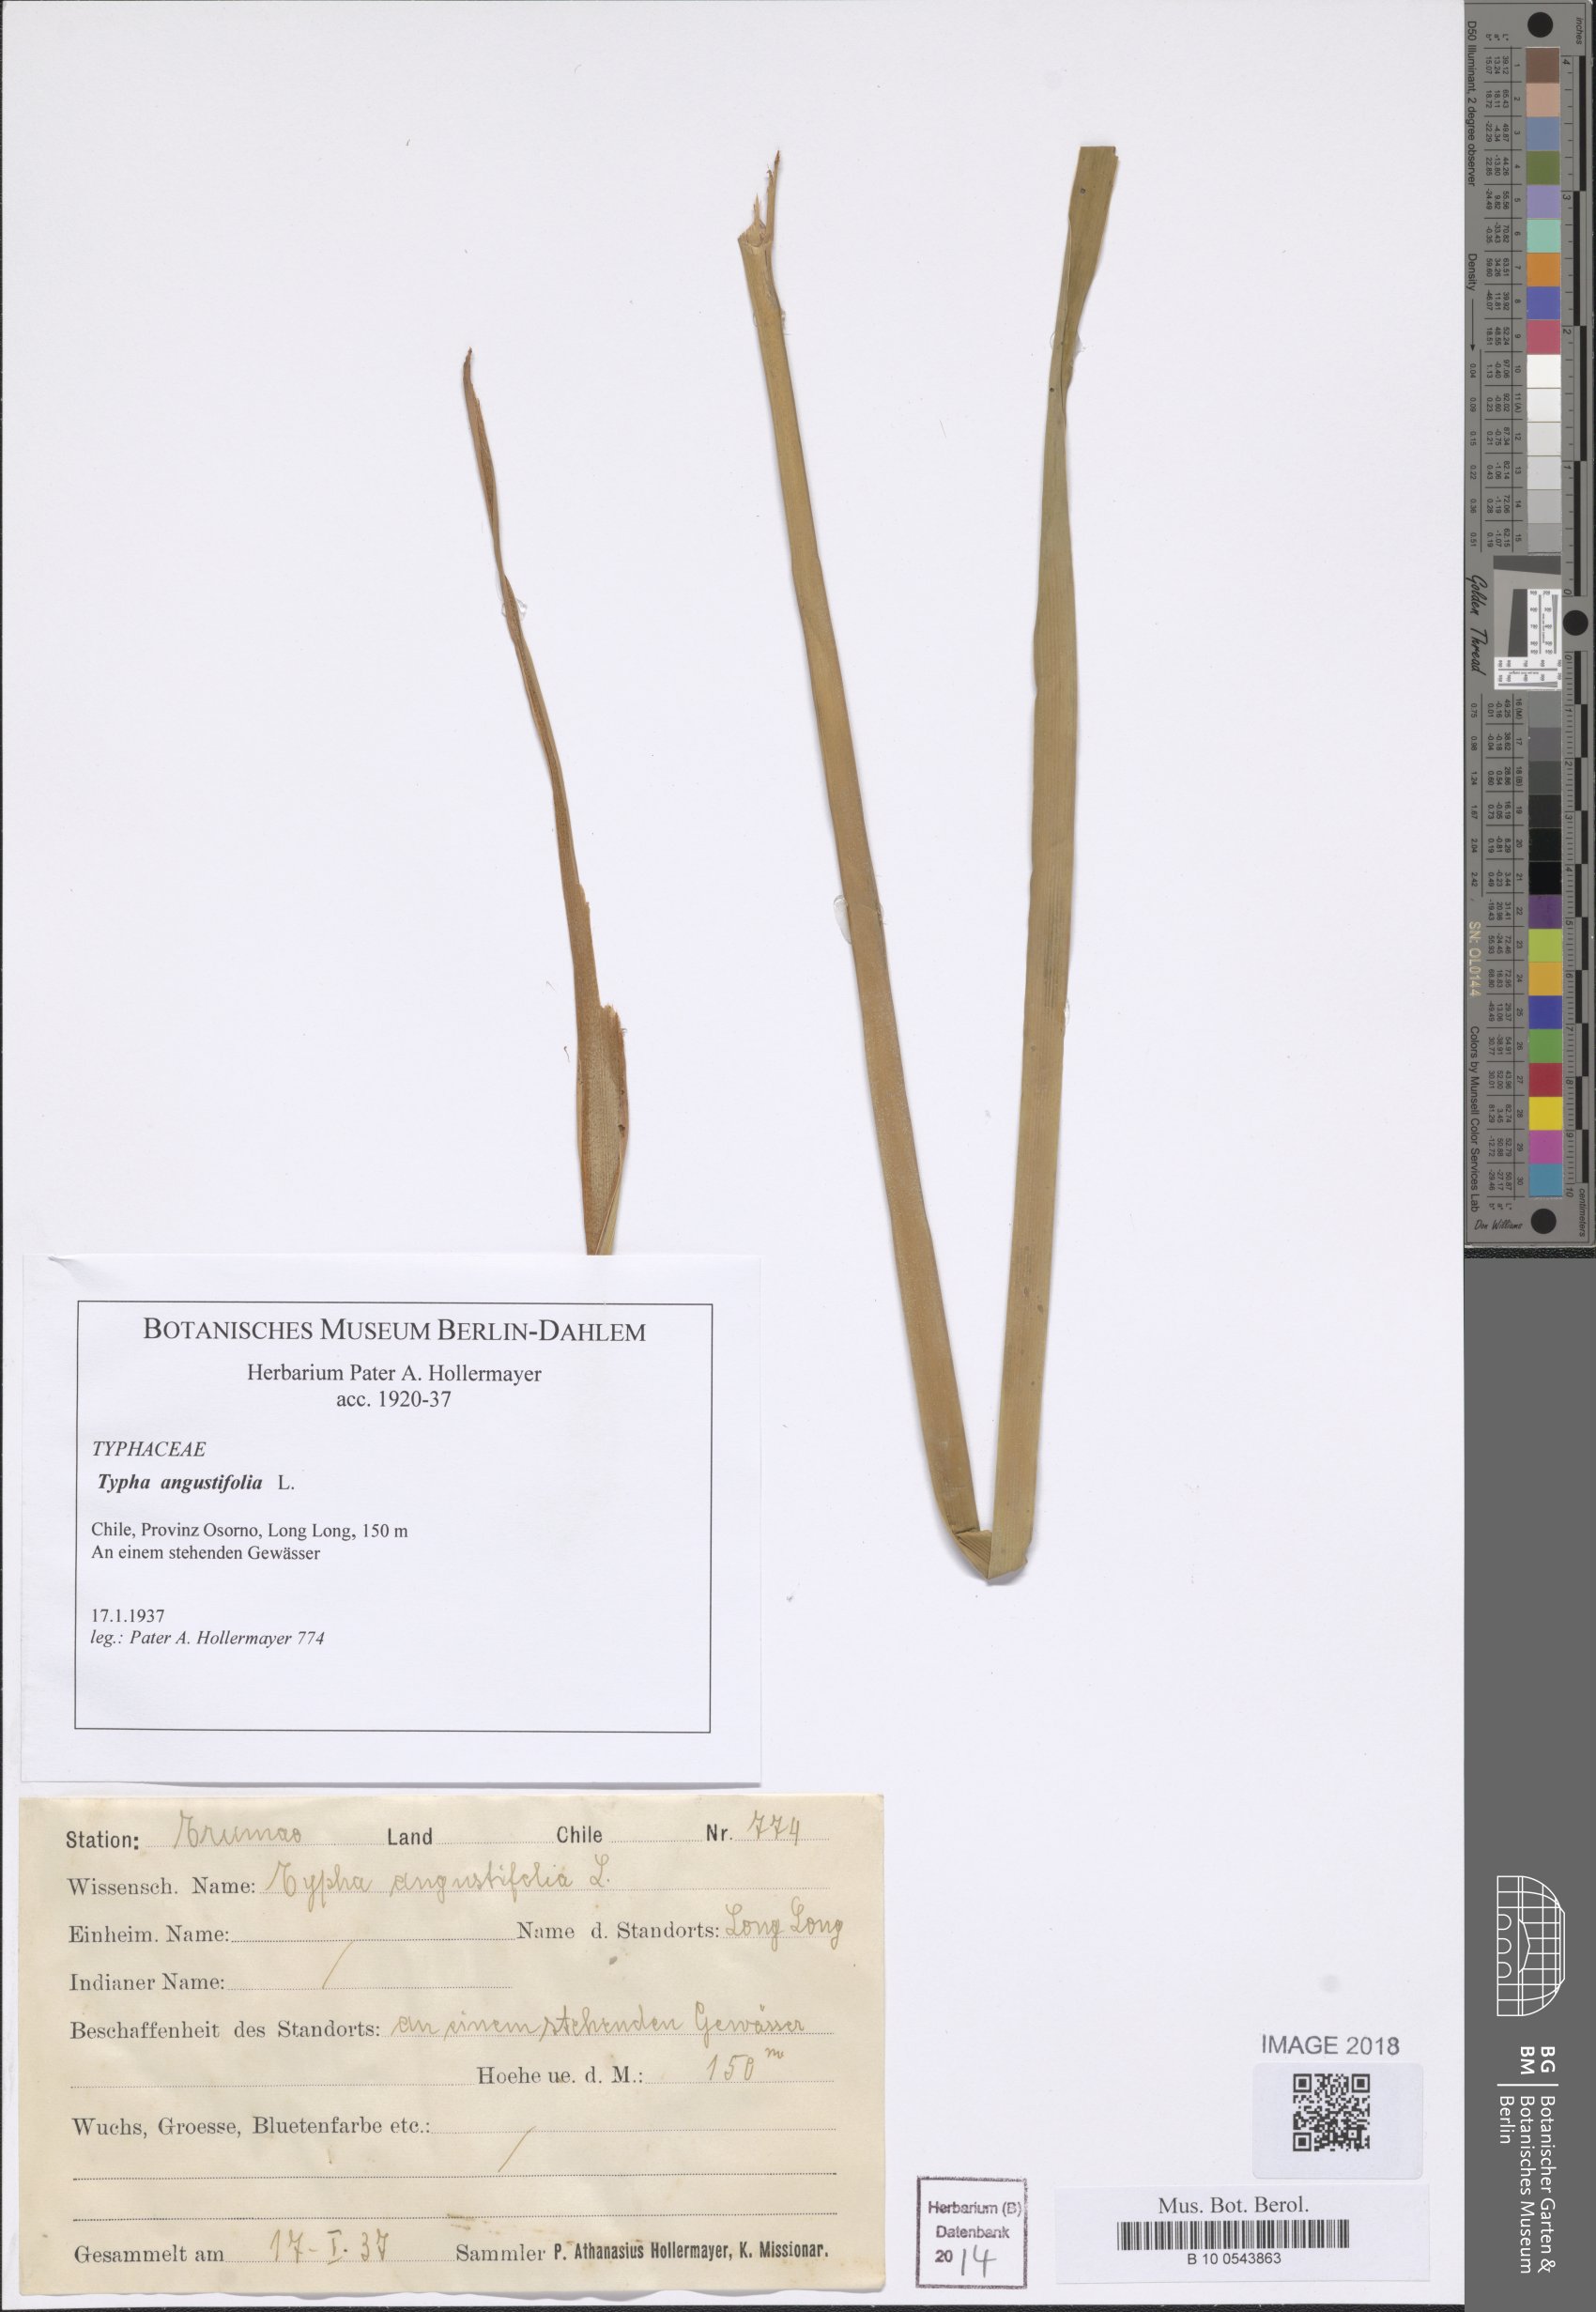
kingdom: Plantae
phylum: Tracheophyta
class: Liliopsida
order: Poales
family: Typhaceae
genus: Typha
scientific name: Typha angustifolia
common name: Lesser bulrush
